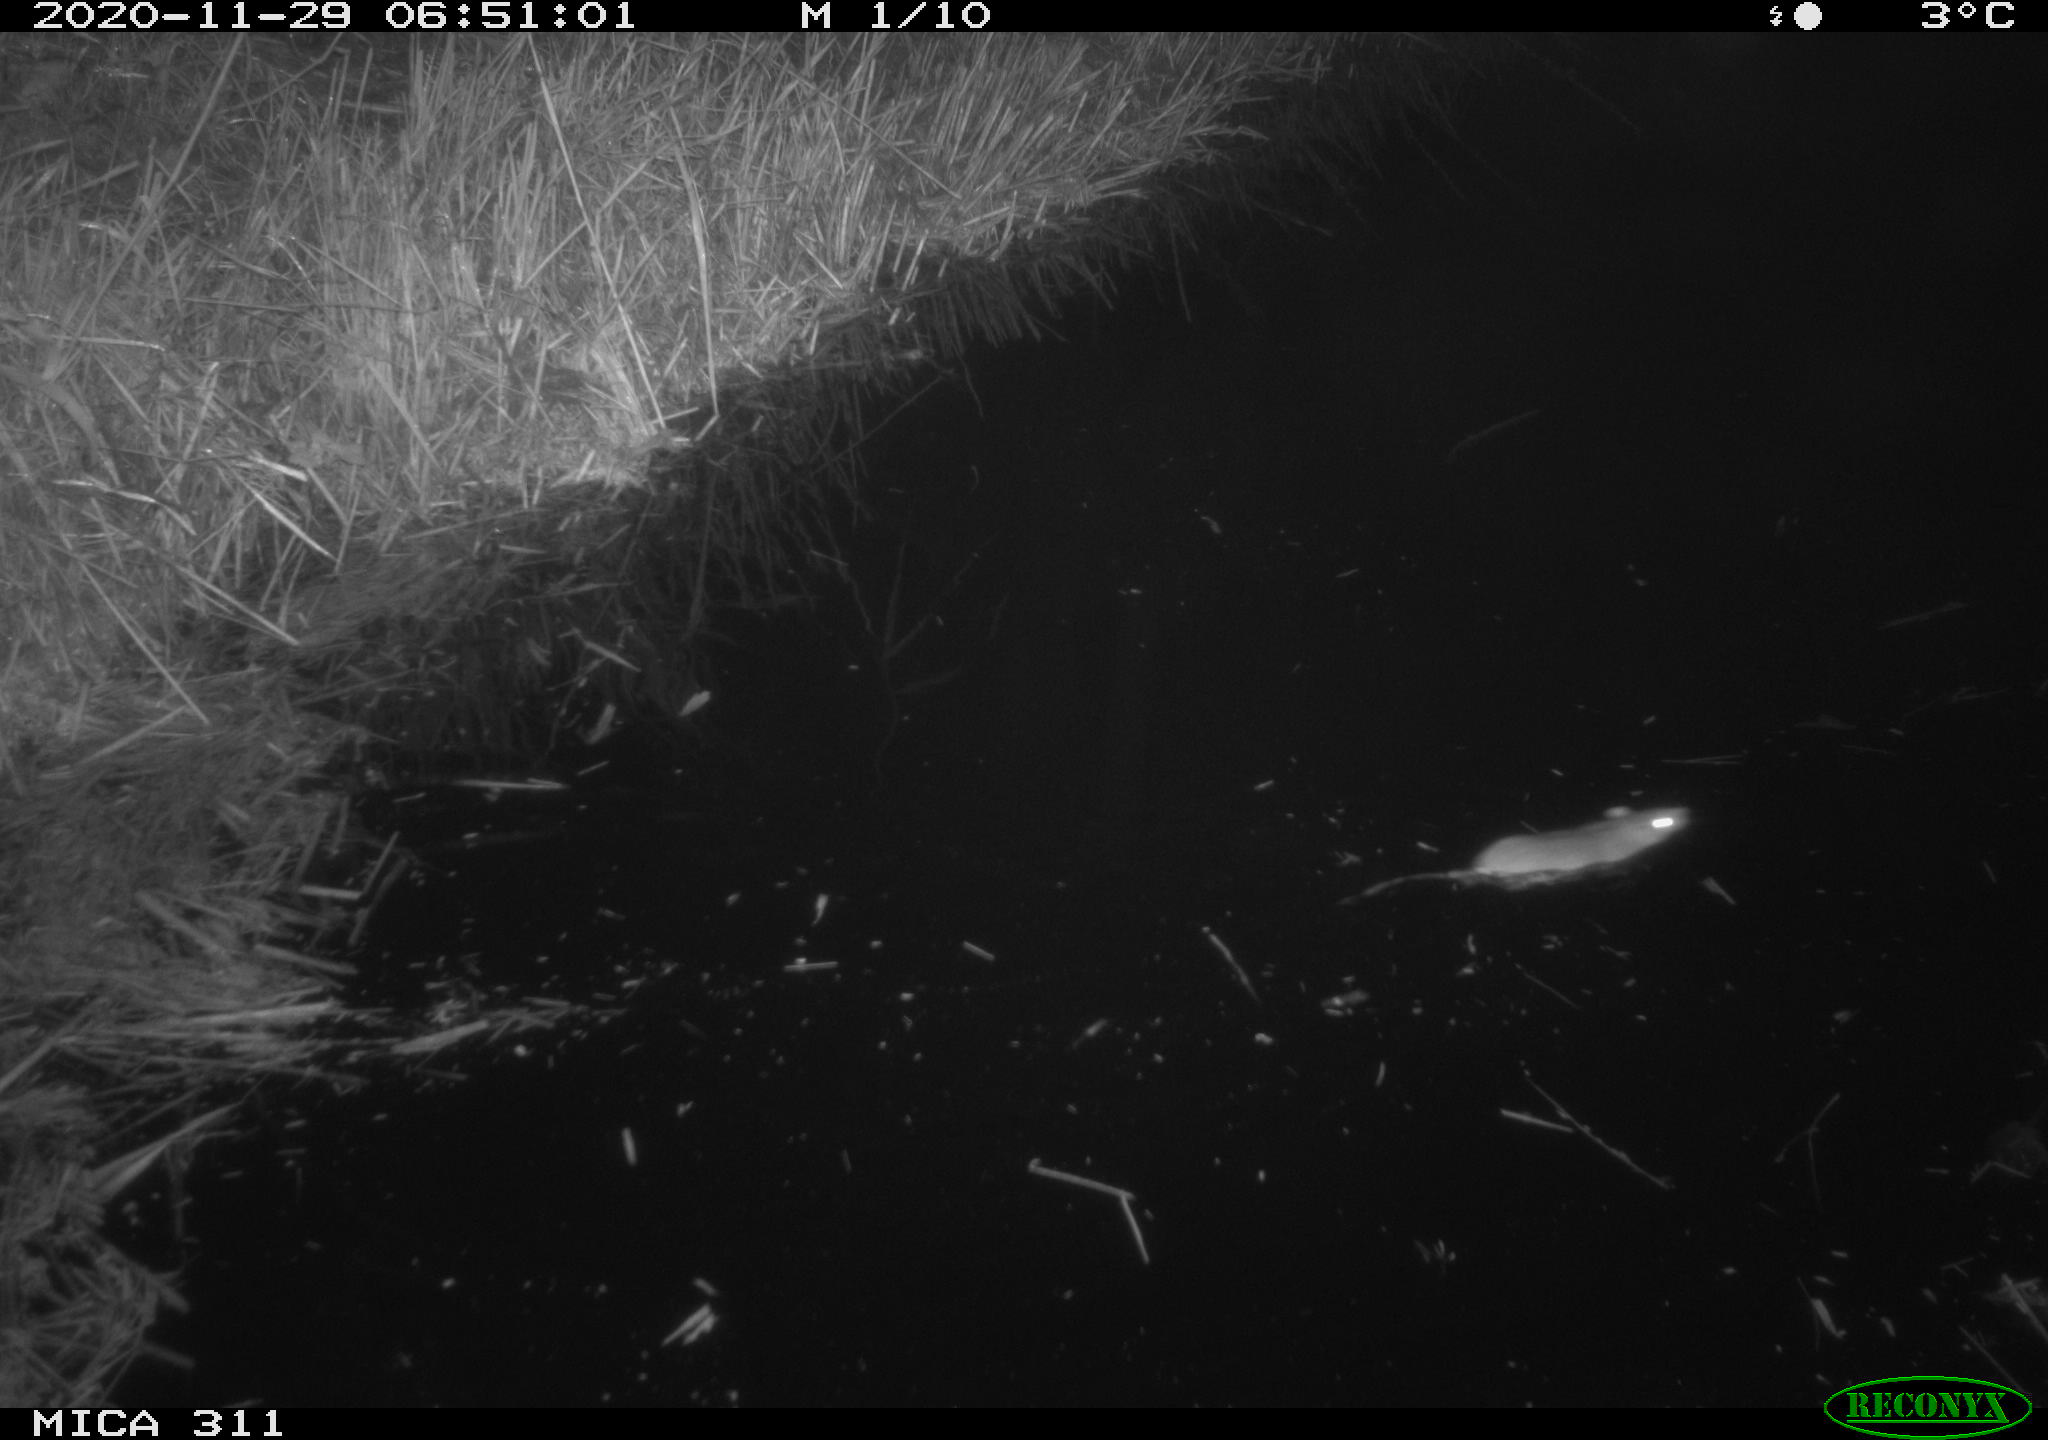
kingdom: Animalia
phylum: Chordata
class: Mammalia
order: Rodentia
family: Muridae
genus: Rattus
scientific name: Rattus norvegicus
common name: Brown rat
